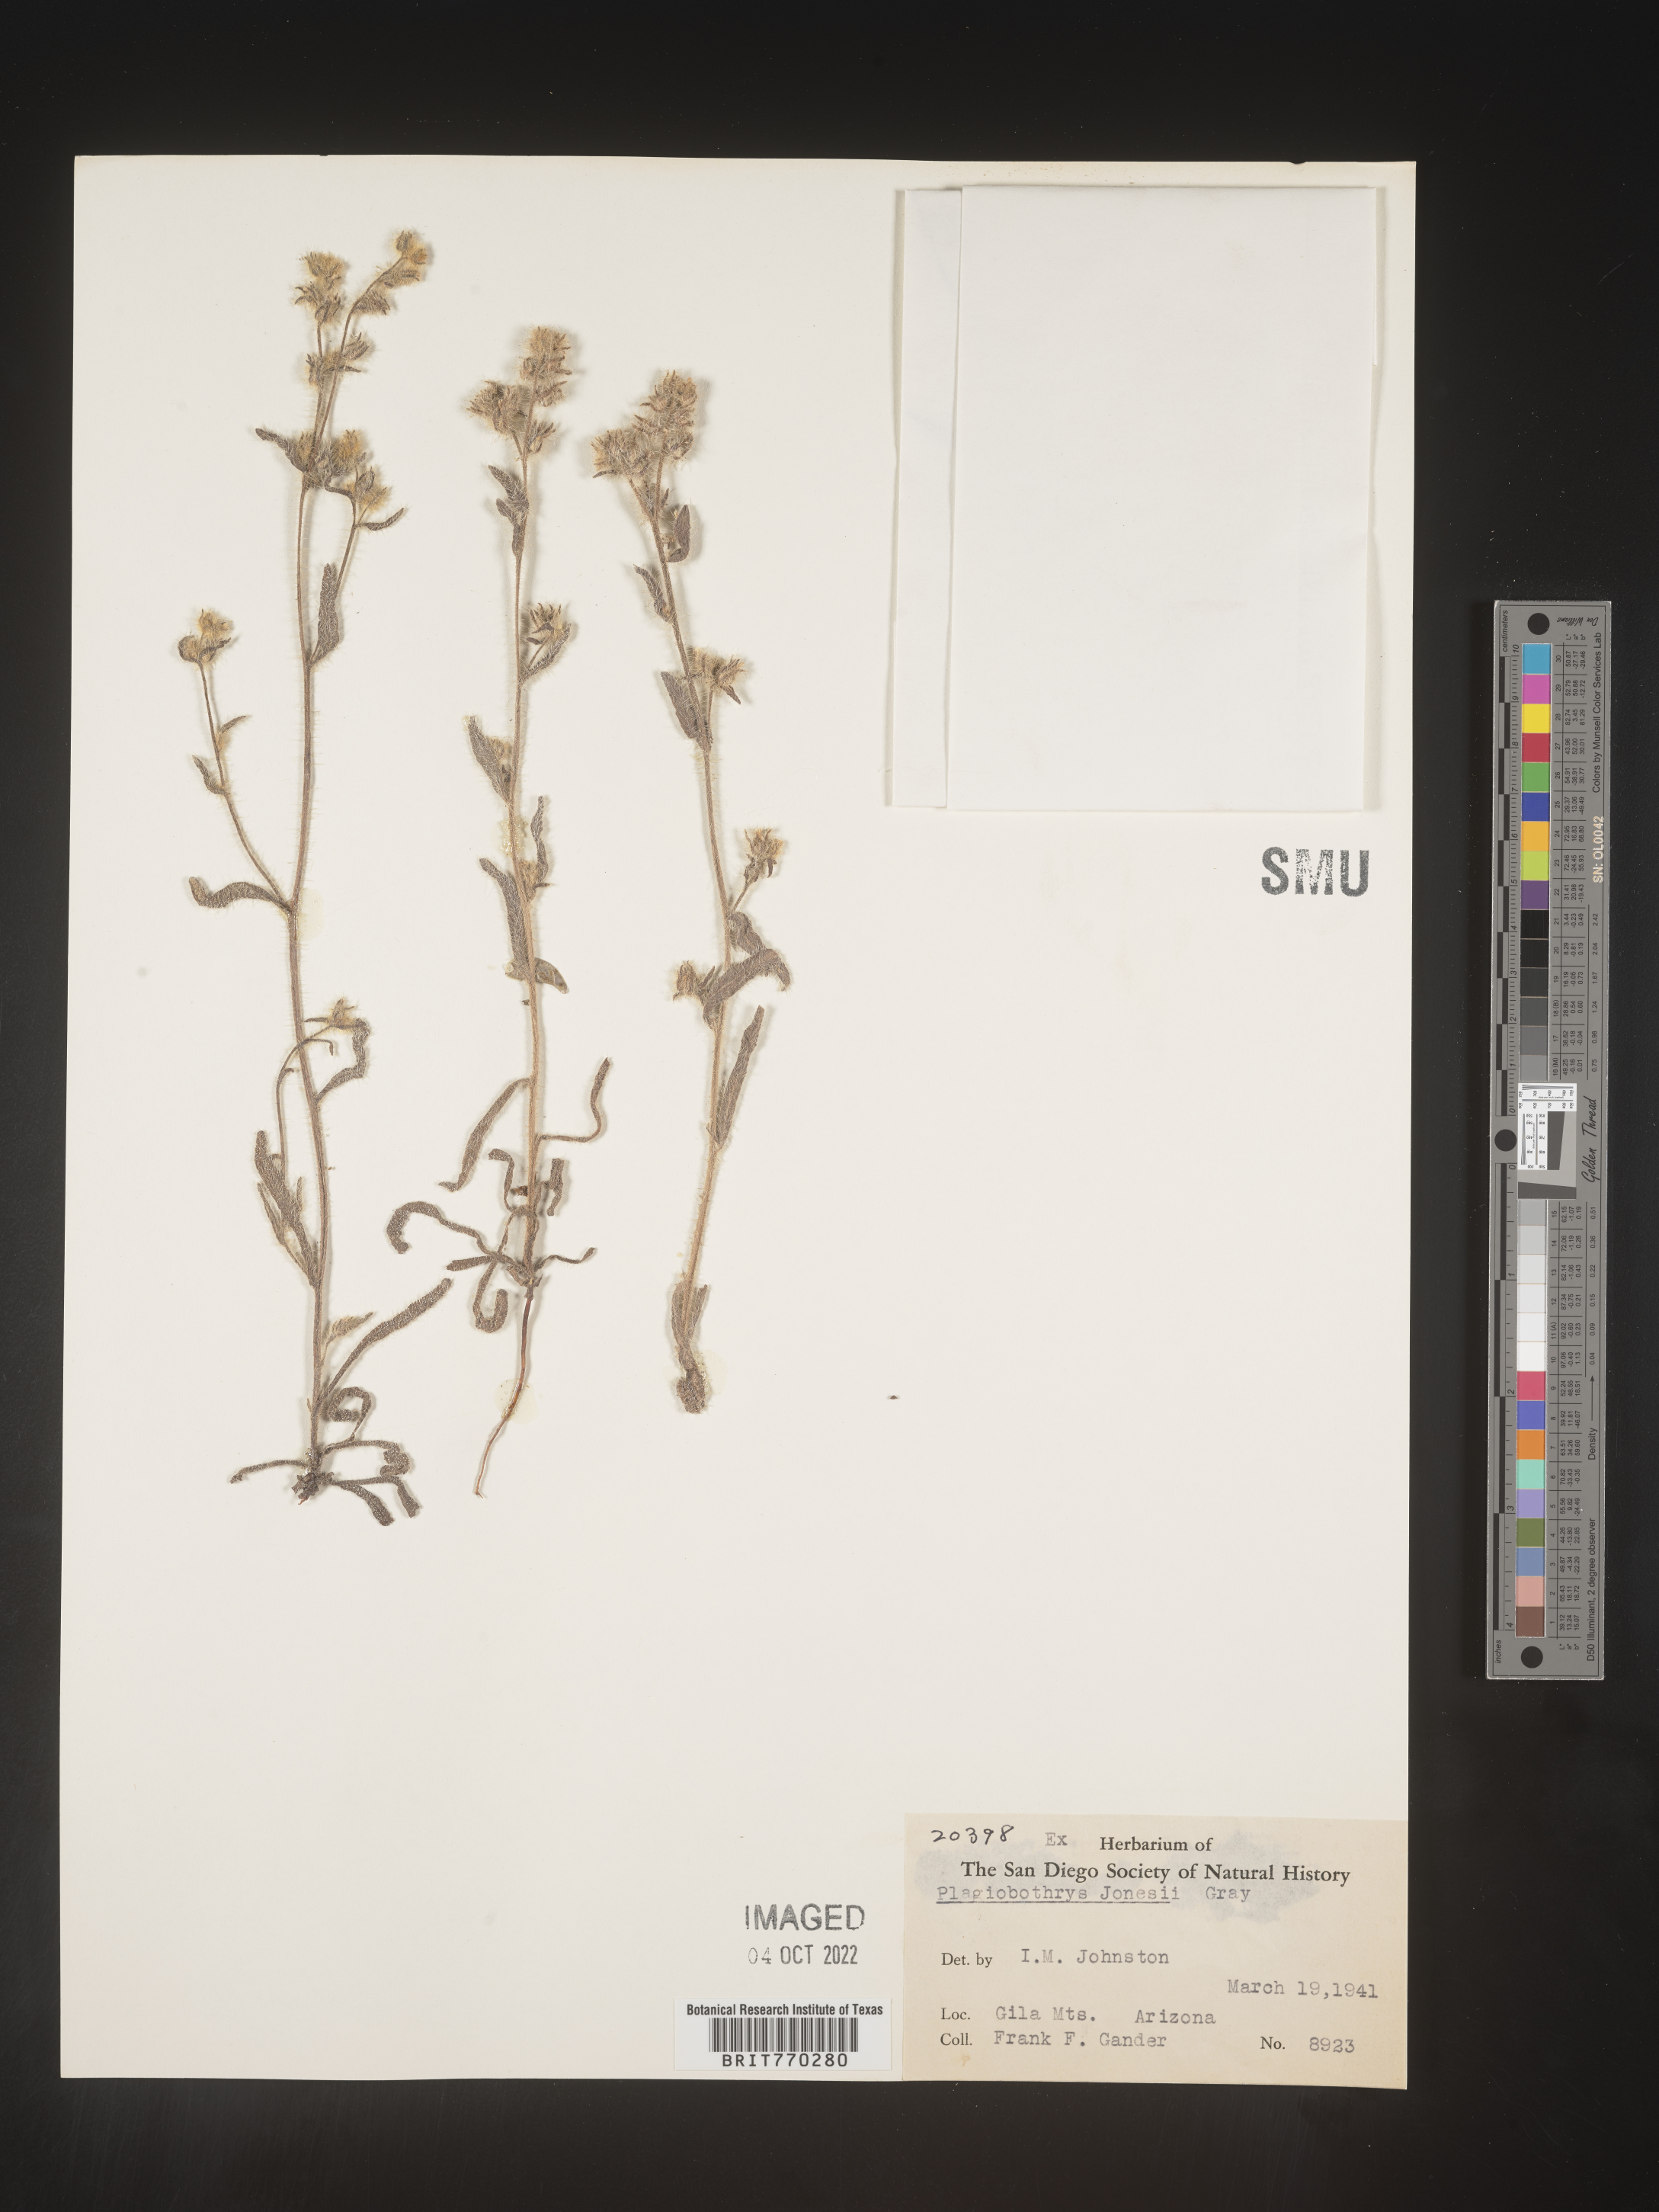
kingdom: Plantae
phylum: Tracheophyta
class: Magnoliopsida
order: Boraginales
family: Boraginaceae
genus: Plagiobothrys
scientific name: Plagiobothrys
